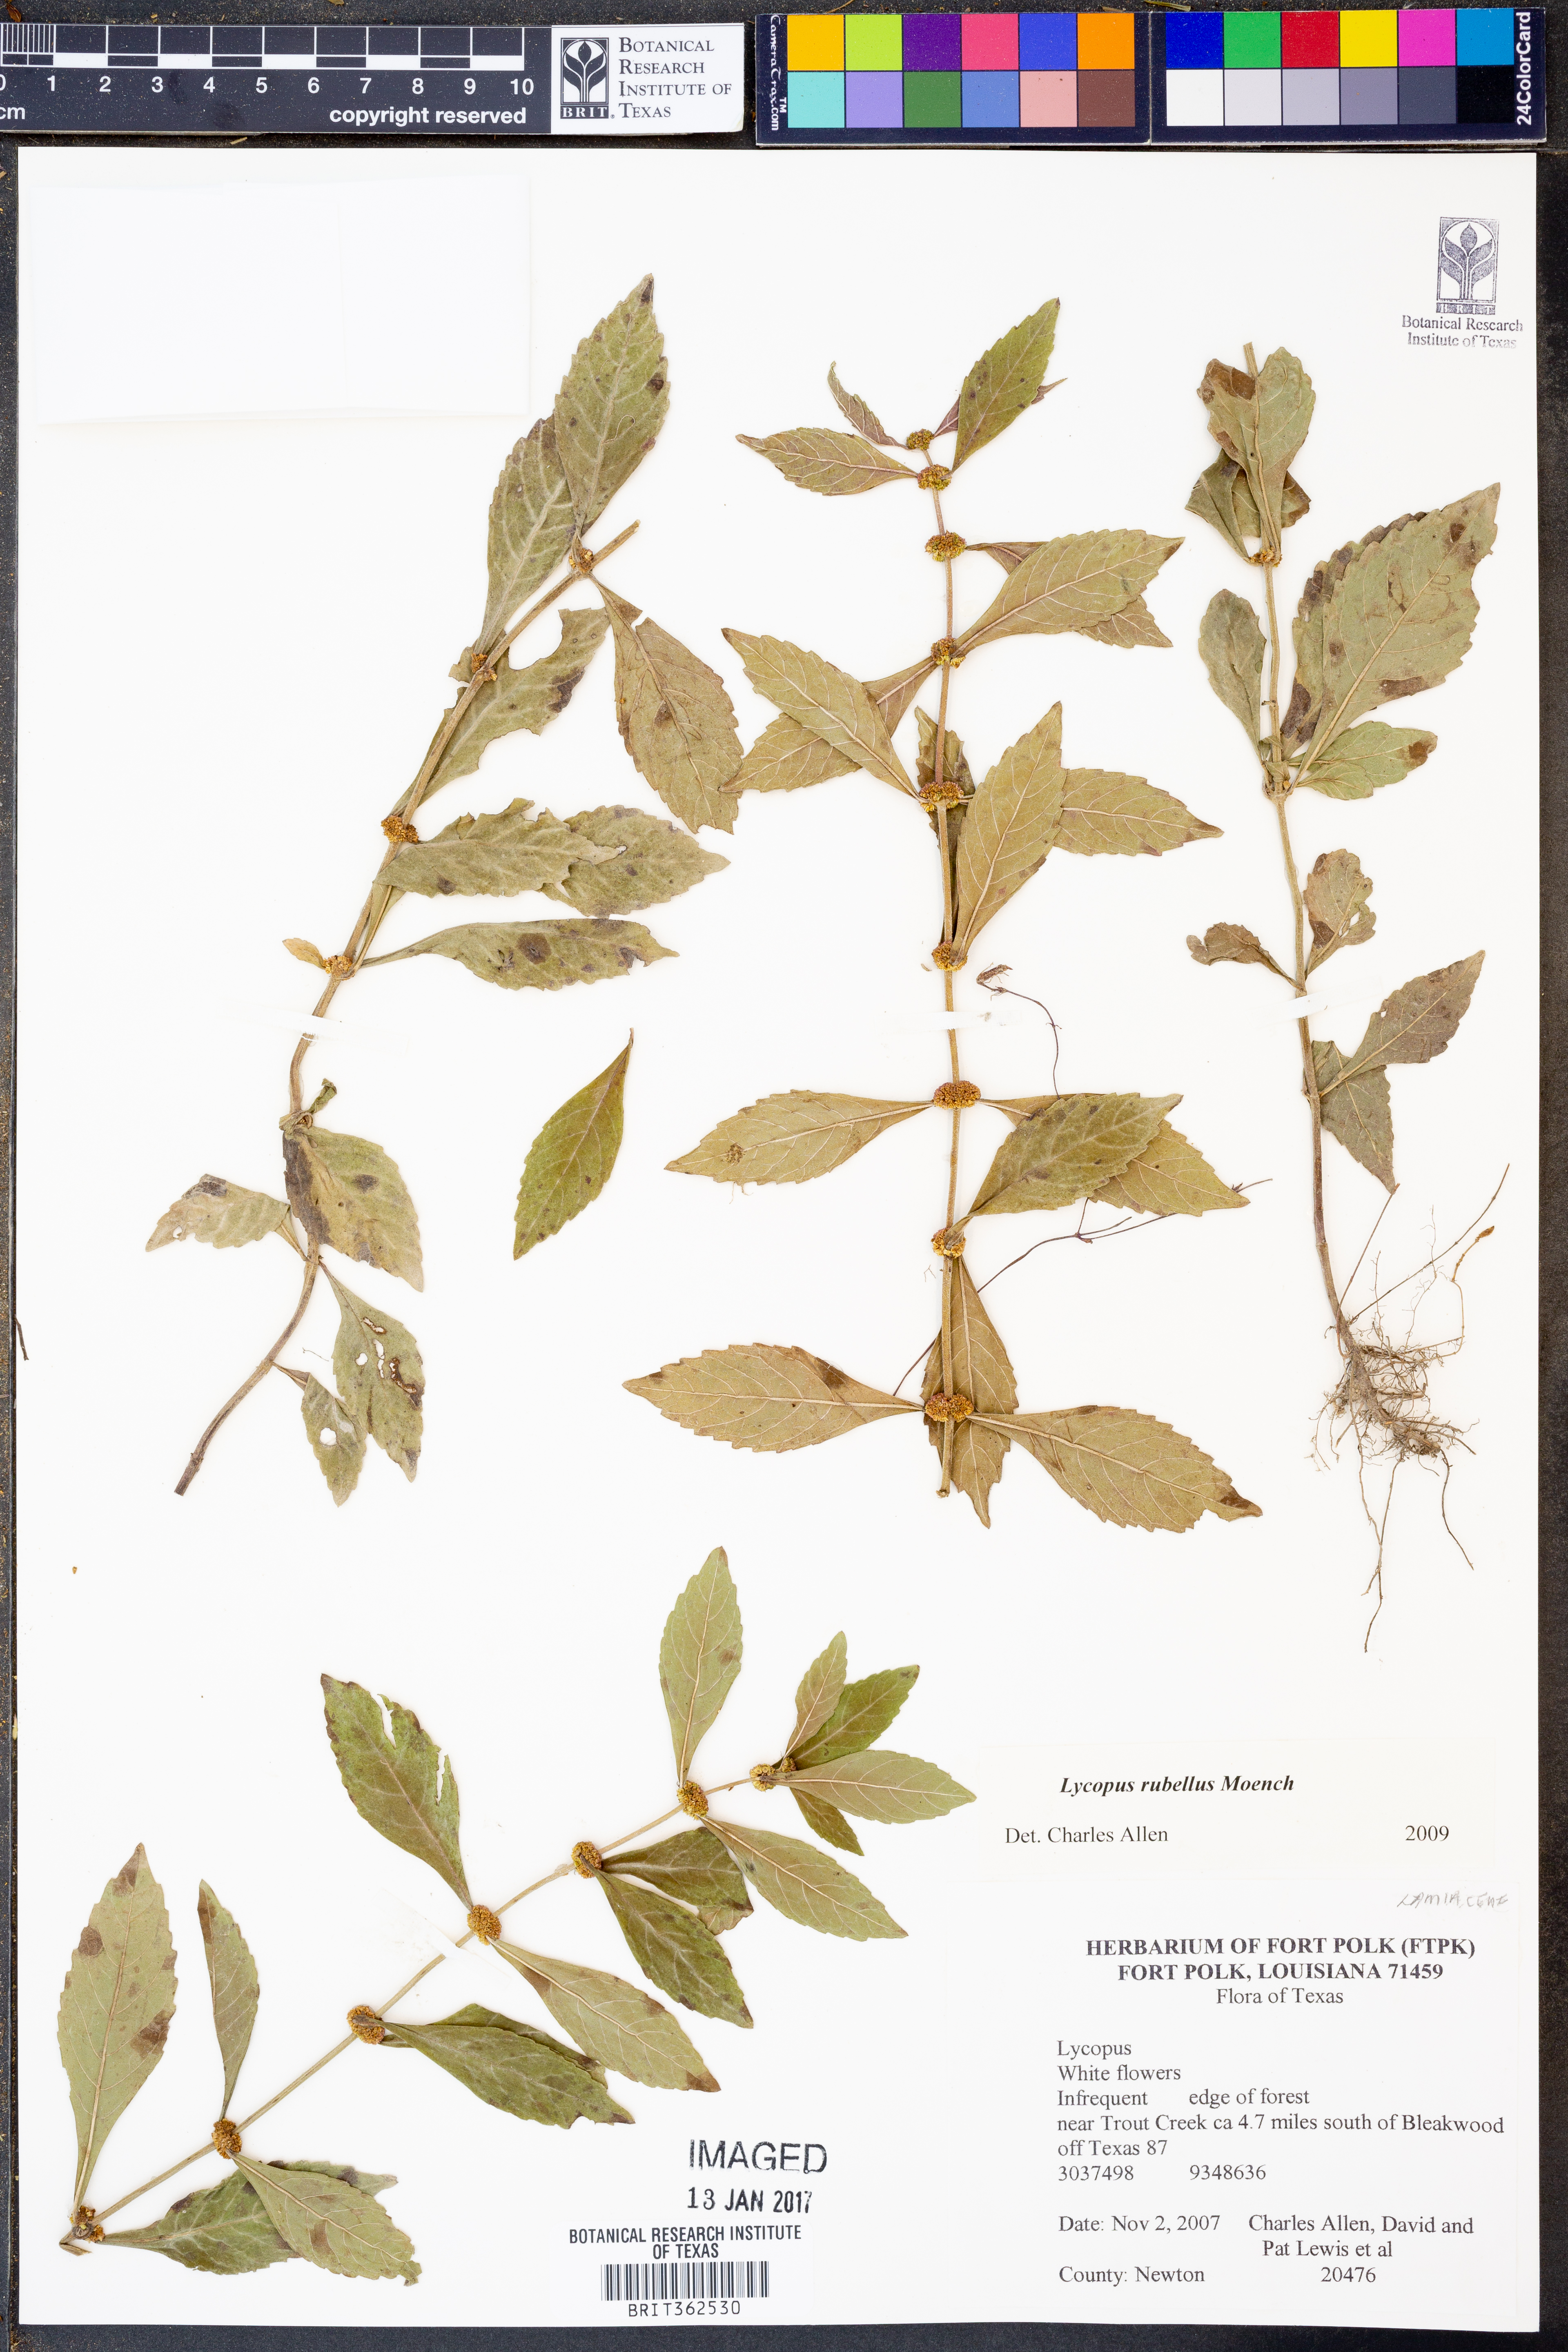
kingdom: Plantae
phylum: Tracheophyta
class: Magnoliopsida
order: Lamiales
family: Lamiaceae
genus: Lycopus
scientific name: Lycopus rubellus
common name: Stalked bugleweed
